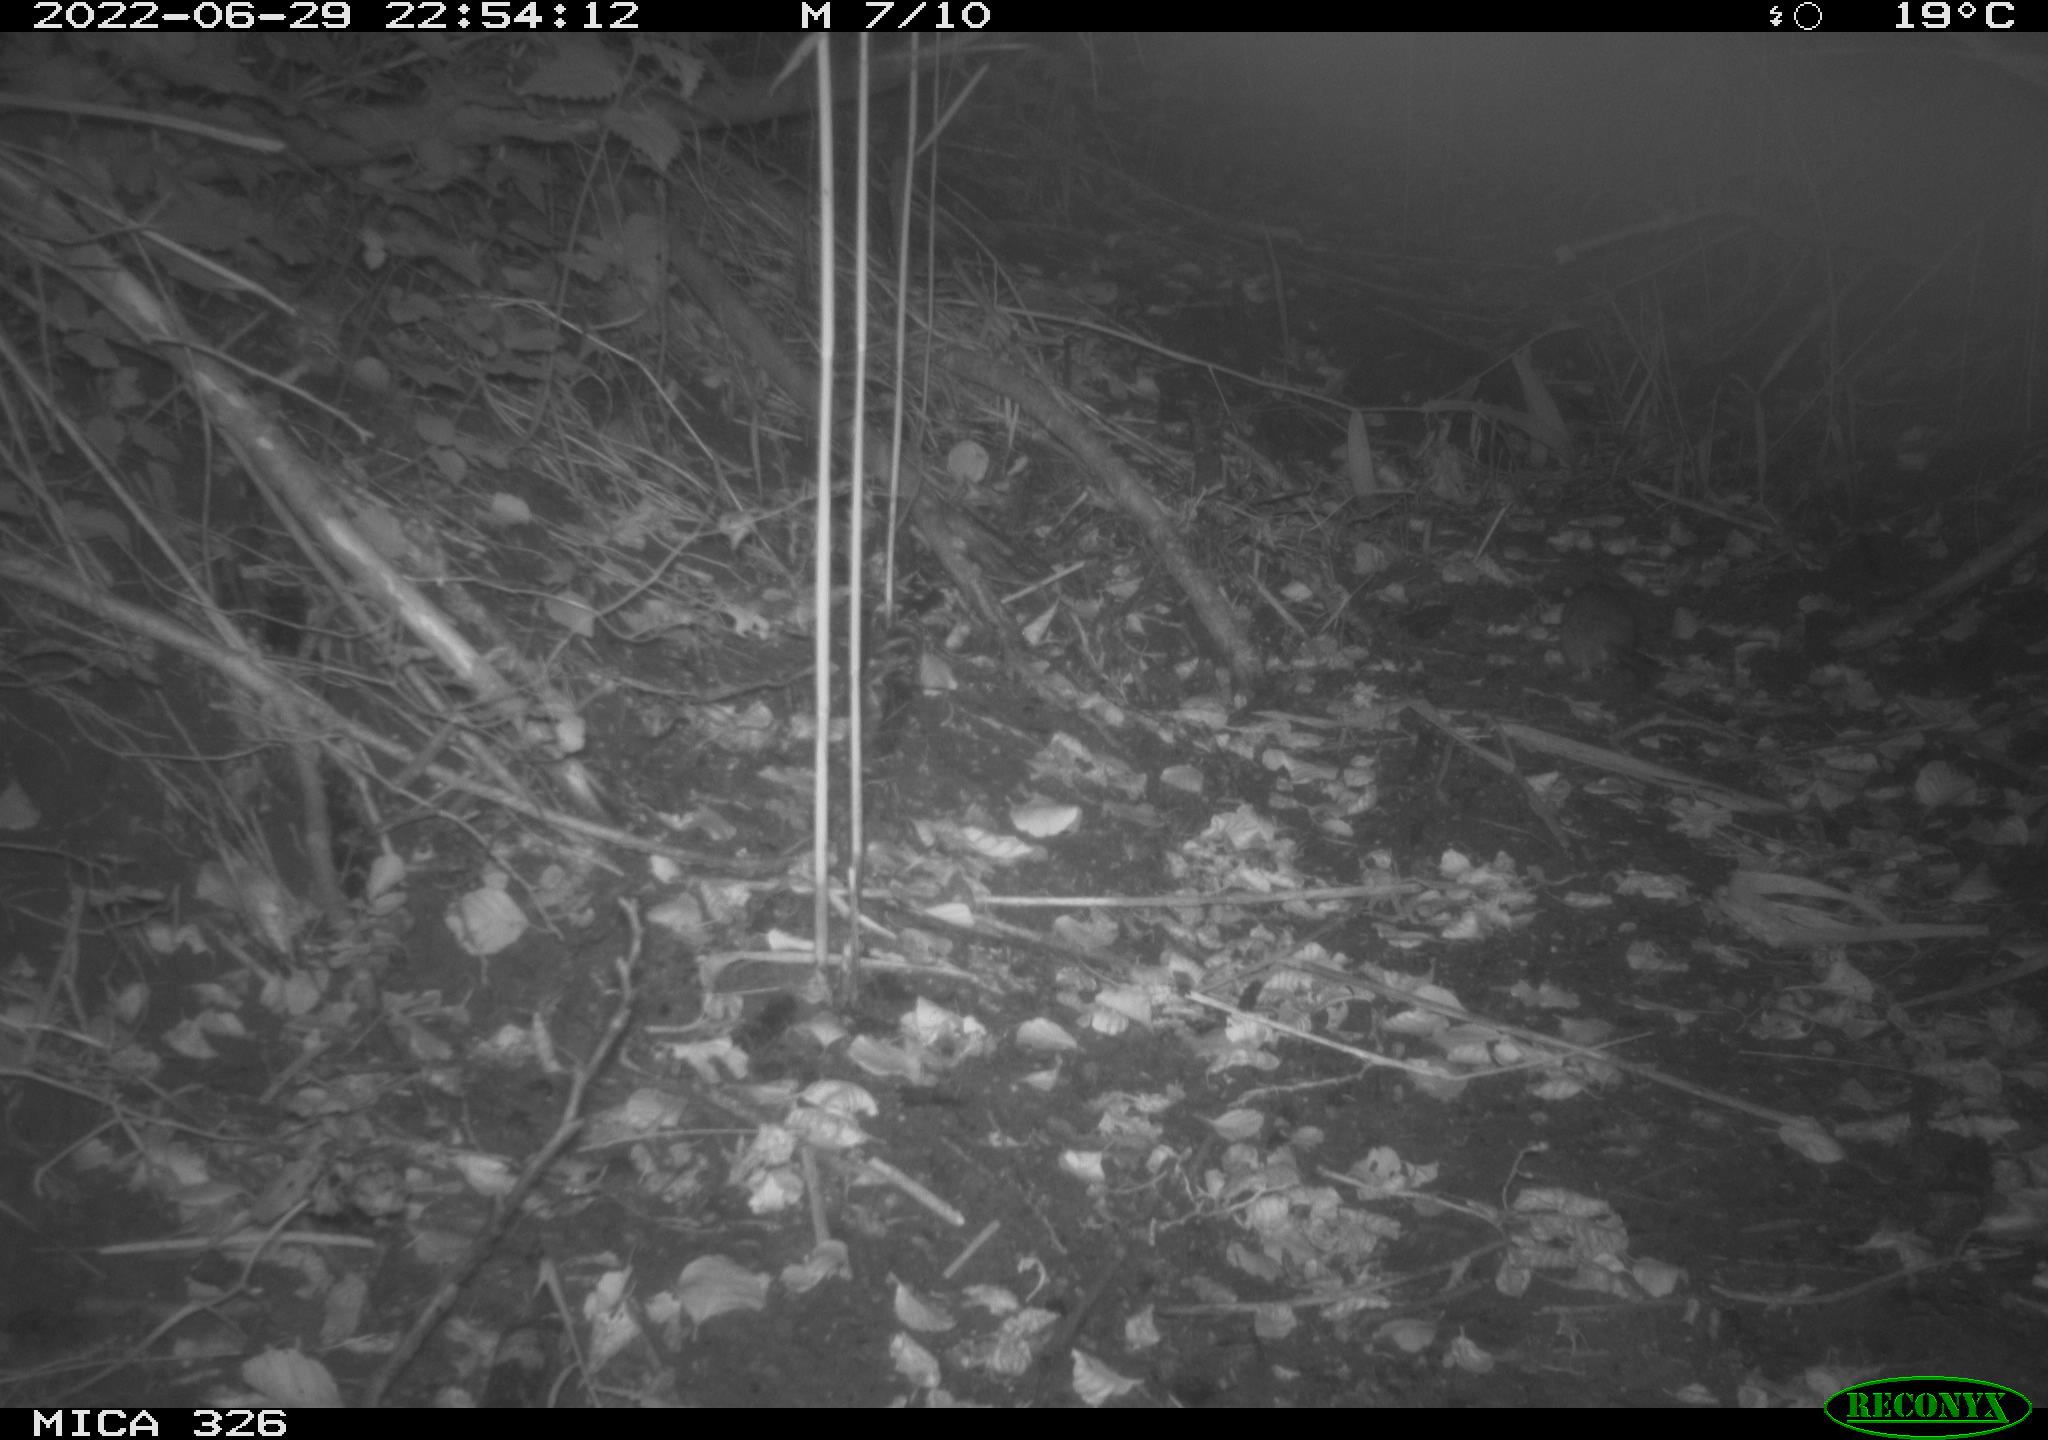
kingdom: Animalia
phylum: Chordata
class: Mammalia
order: Rodentia
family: Muridae
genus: Rattus
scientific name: Rattus norvegicus
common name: Brown rat
